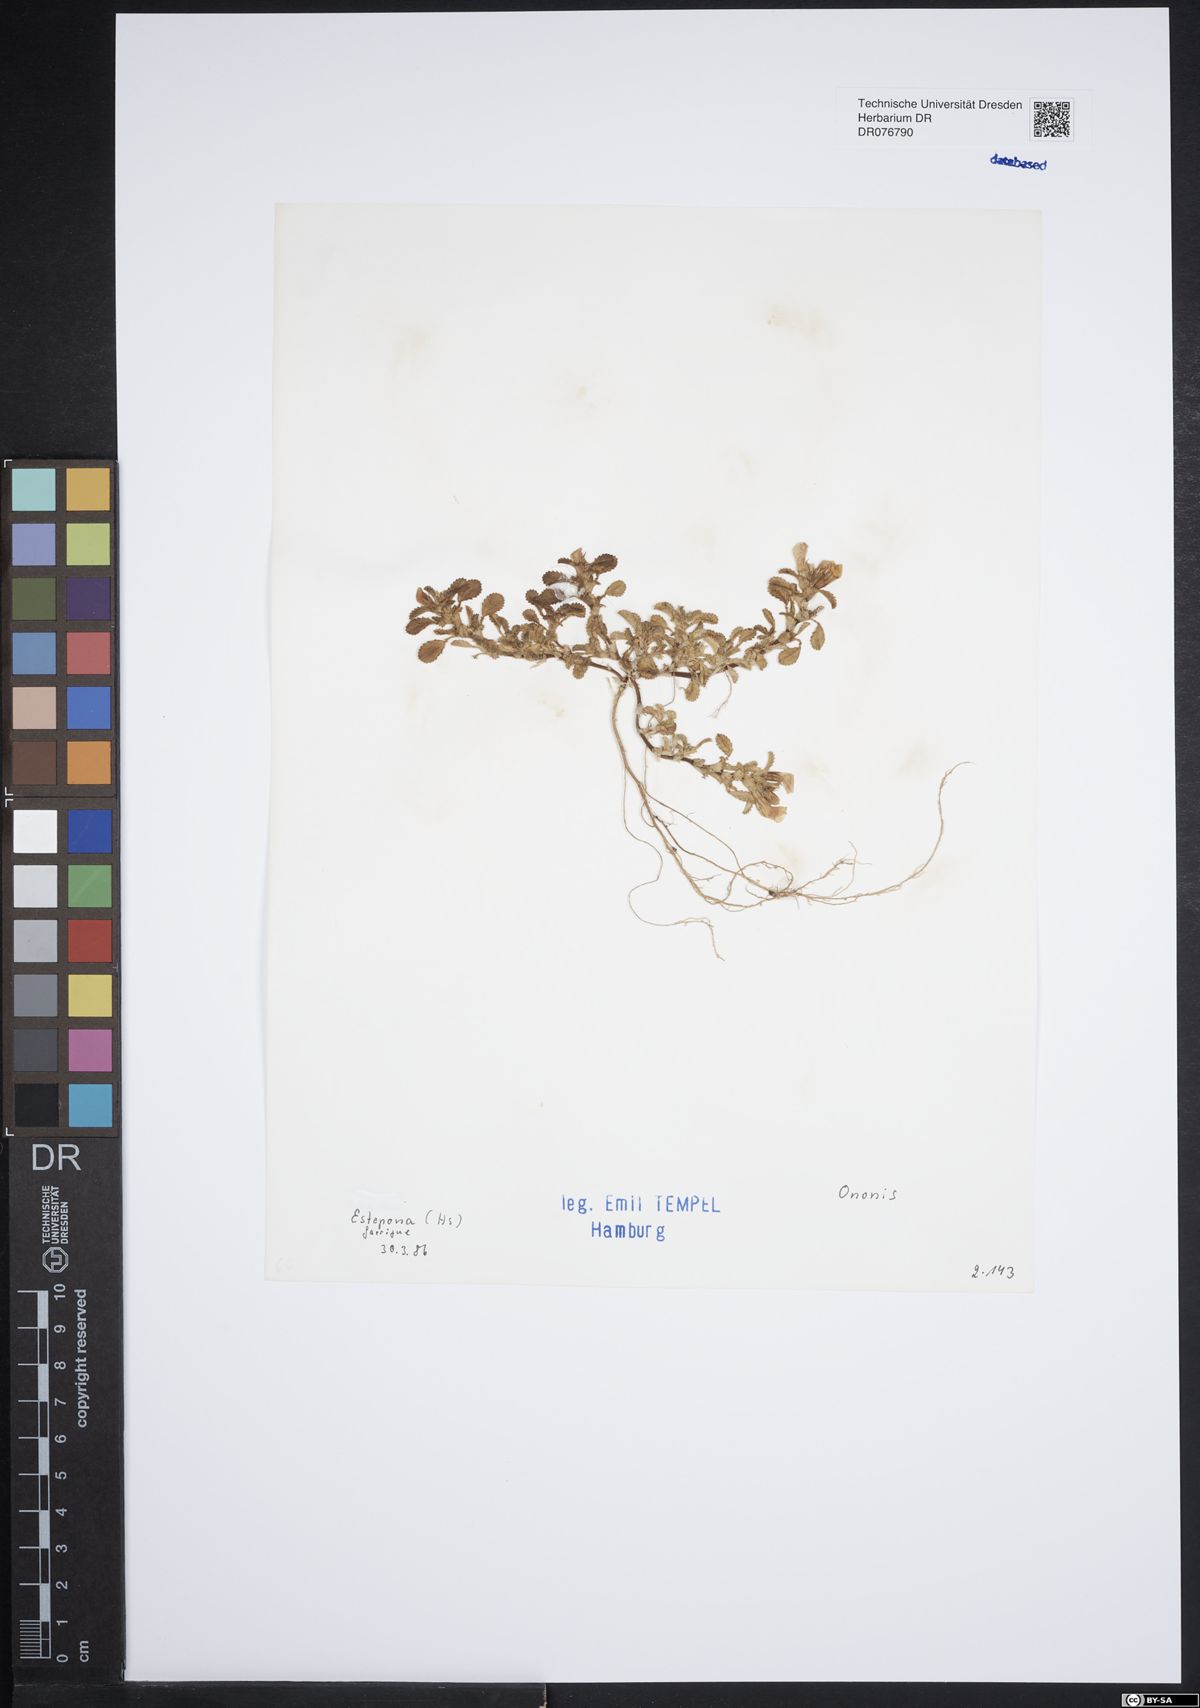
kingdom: Plantae
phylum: Tracheophyta
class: Magnoliopsida
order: Fabales
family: Fabaceae
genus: Ononis
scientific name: Ononis
